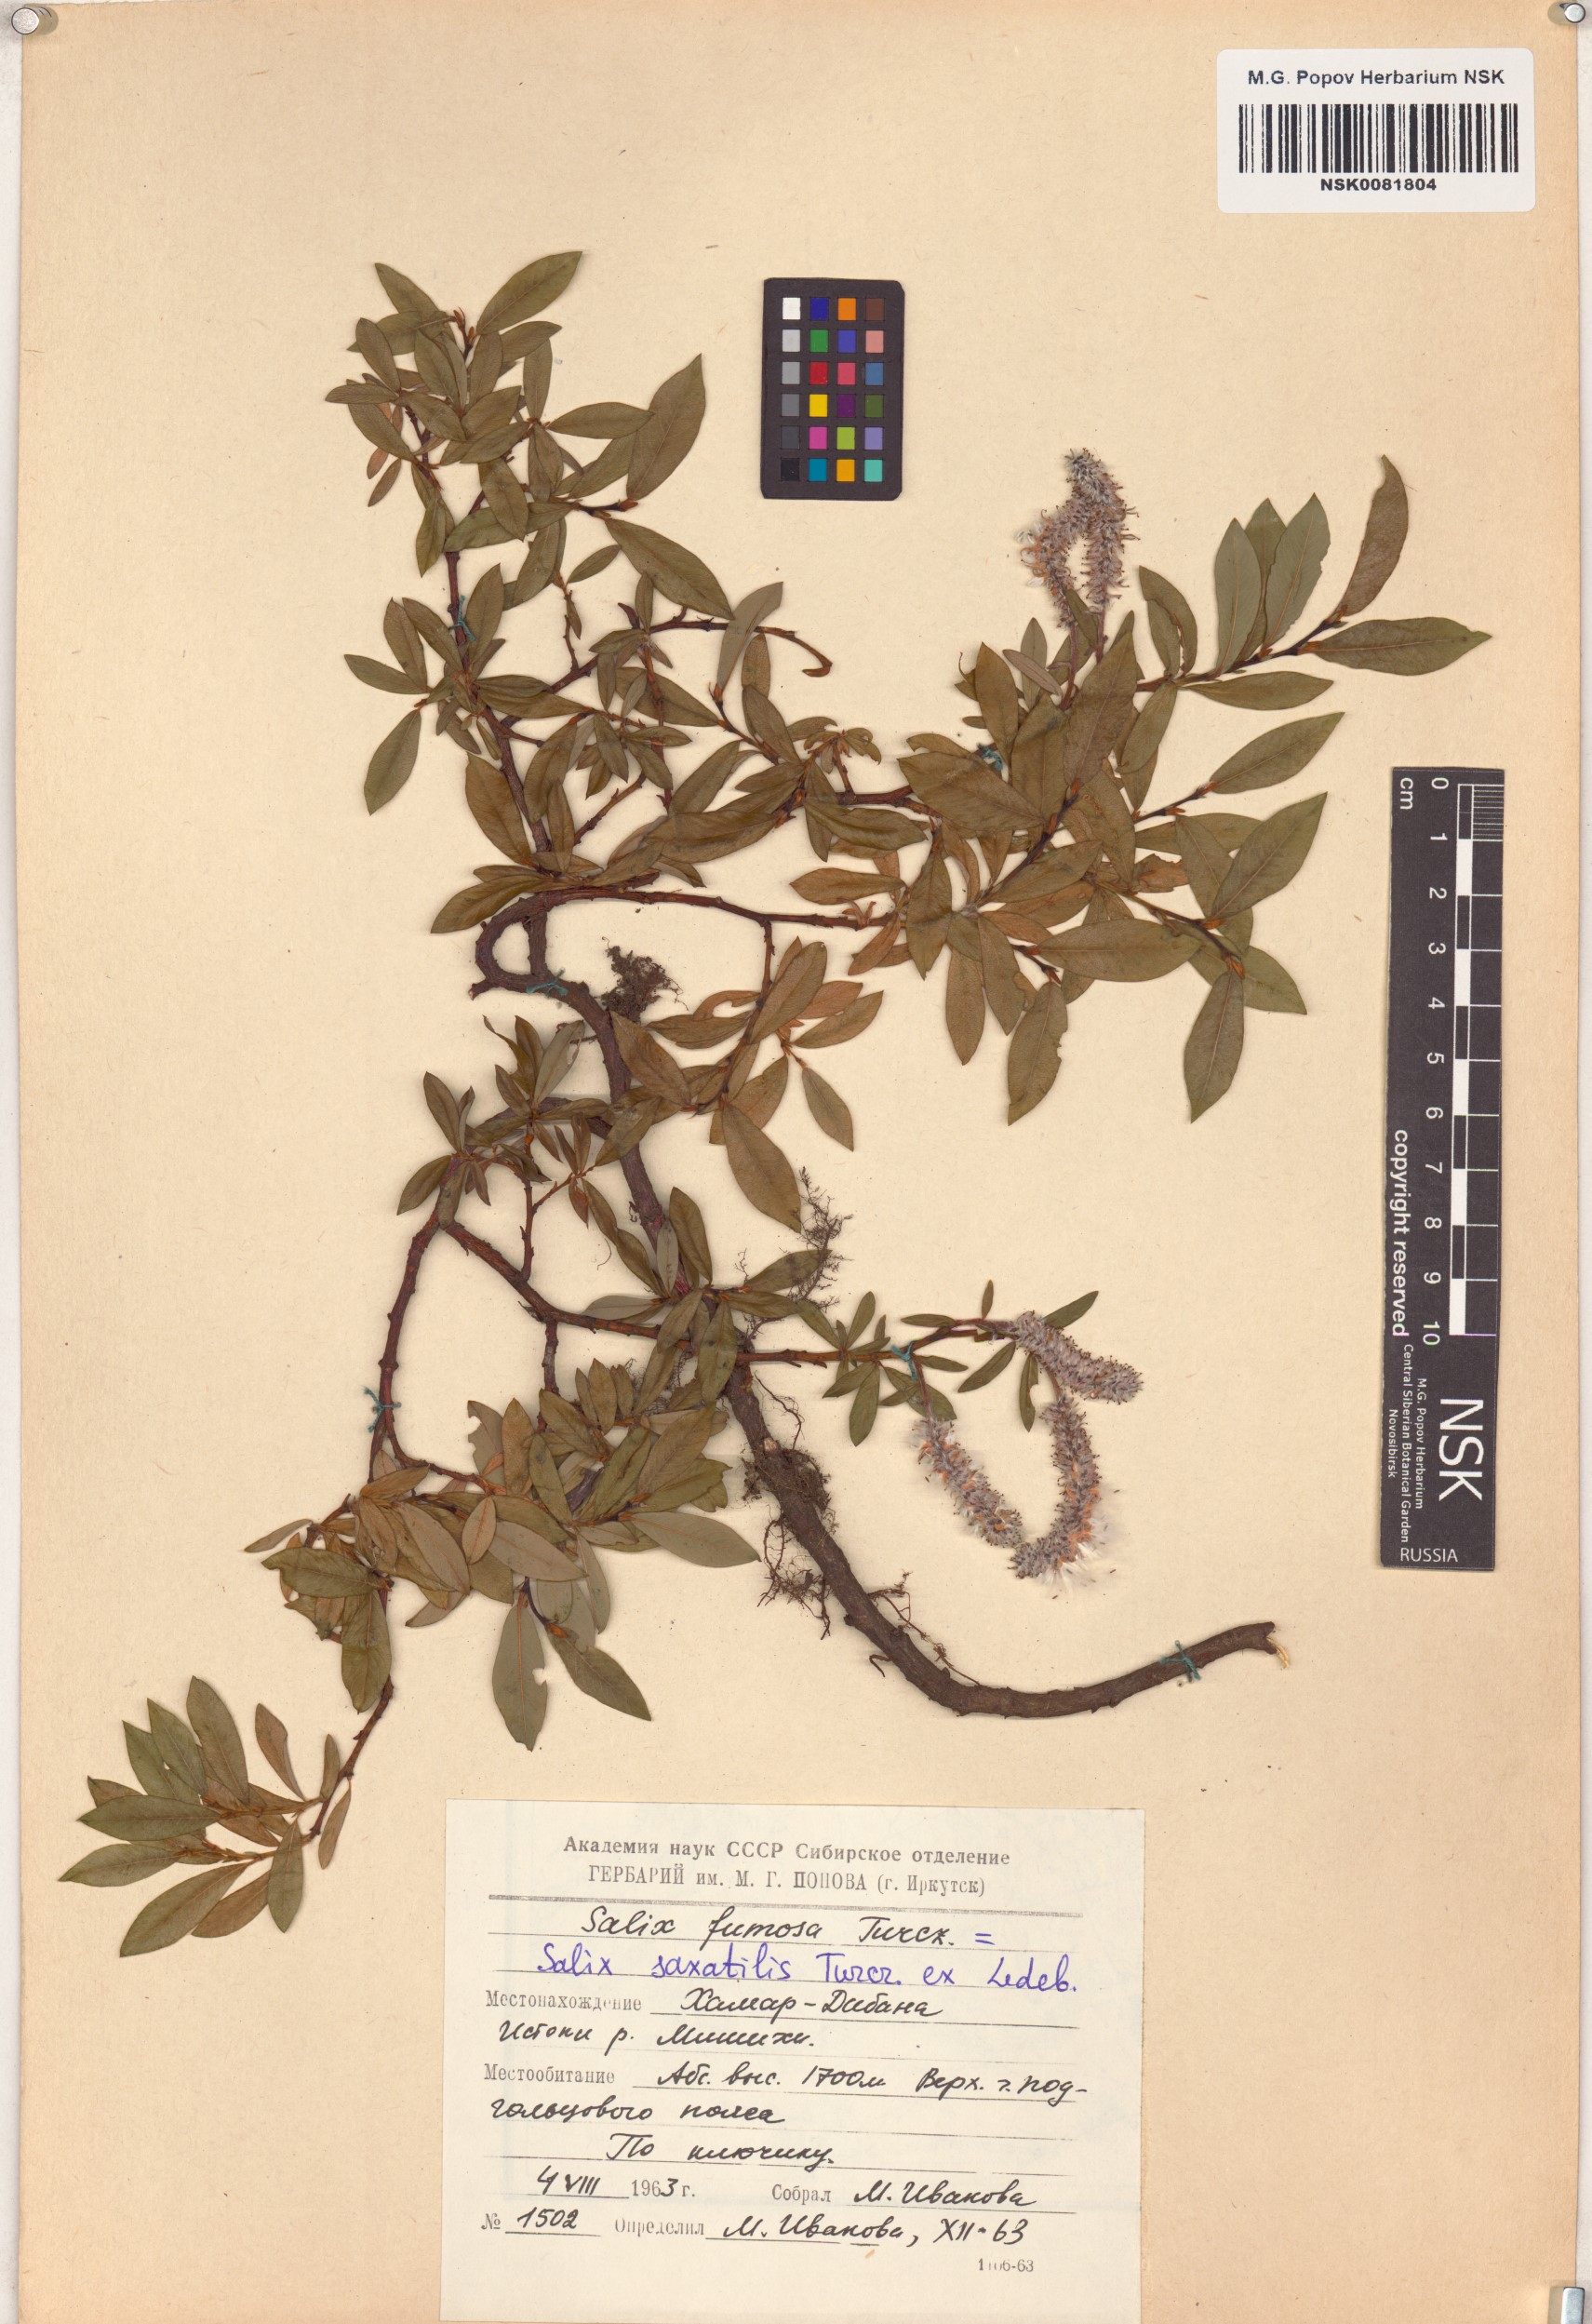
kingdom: Plantae
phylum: Tracheophyta
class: Magnoliopsida
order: Malpighiales
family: Salicaceae
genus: Salix
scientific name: Salix saxatilis
